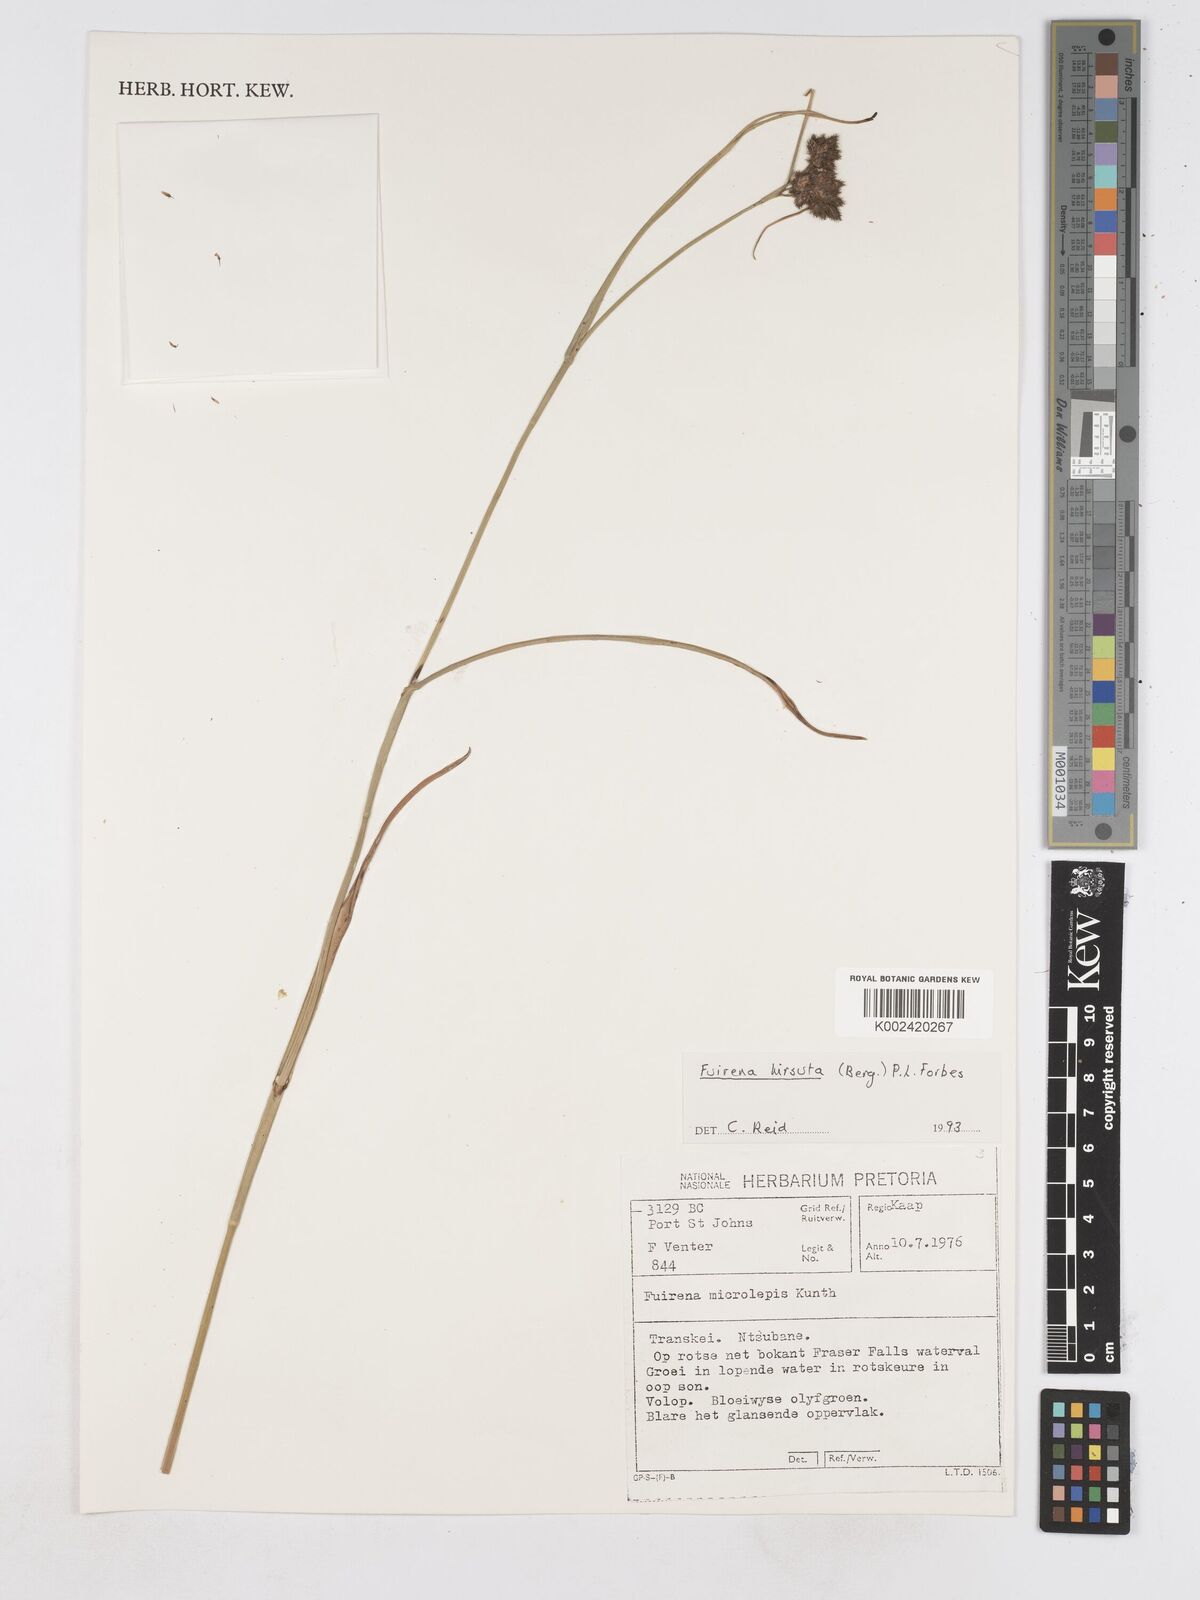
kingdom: Plantae
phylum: Tracheophyta
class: Liliopsida
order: Poales
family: Cyperaceae
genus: Fuirena
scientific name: Fuirena hirsuta
